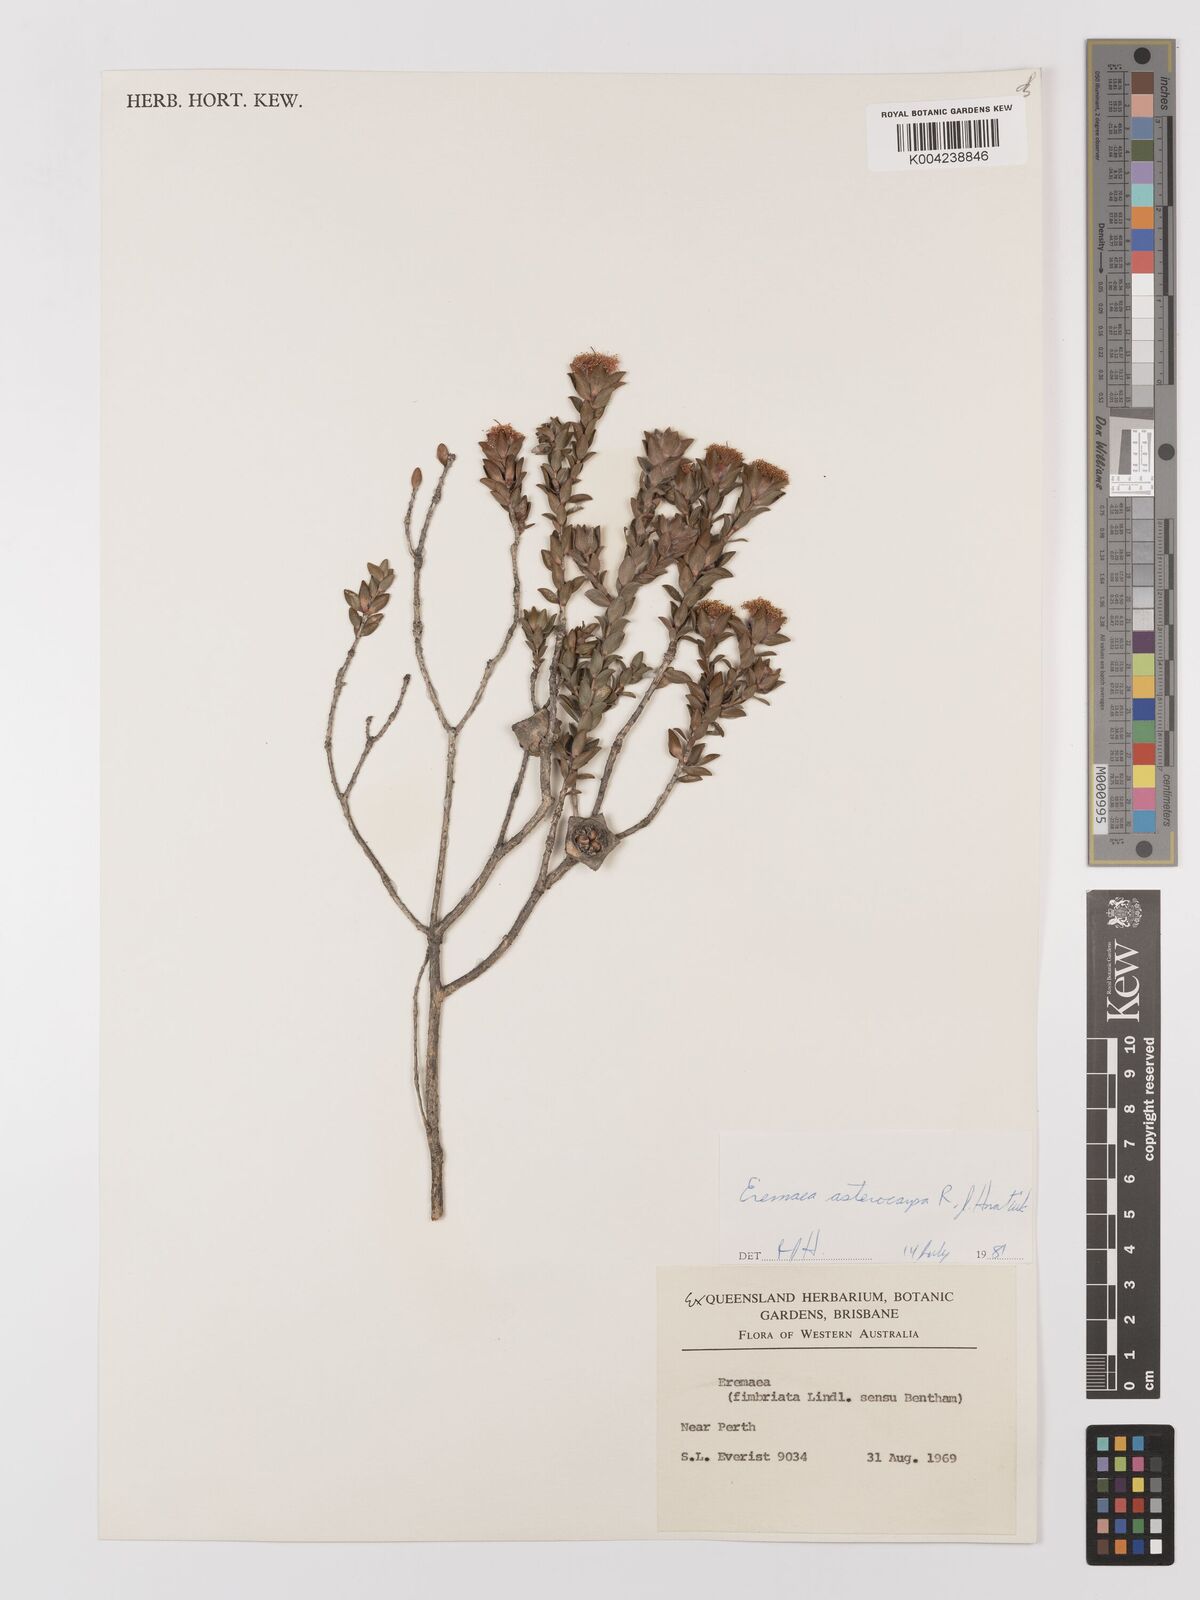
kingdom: Plantae
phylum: Tracheophyta
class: Magnoliopsida
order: Myrtales
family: Myrtaceae
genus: Melaleuca
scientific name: Melaleuca asterocarpa
